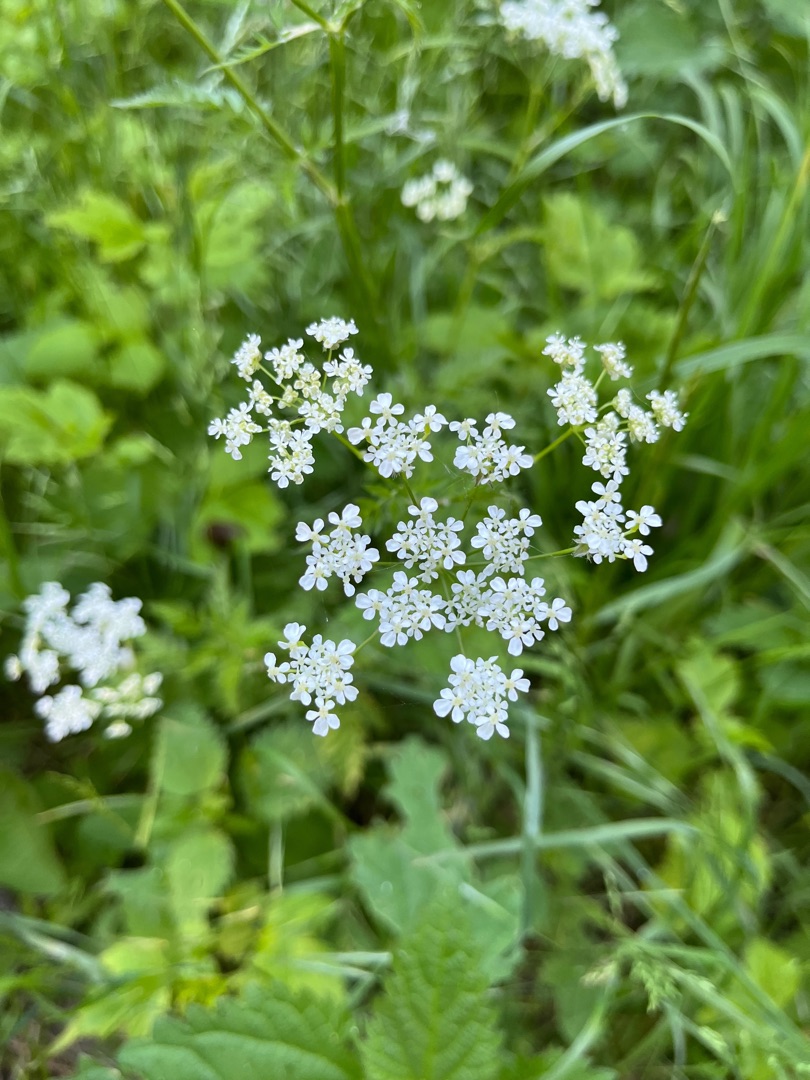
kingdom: Plantae
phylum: Tracheophyta
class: Magnoliopsida
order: Apiales
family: Apiaceae
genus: Anthriscus
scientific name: Anthriscus sylvestris
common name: Vild kørvel
